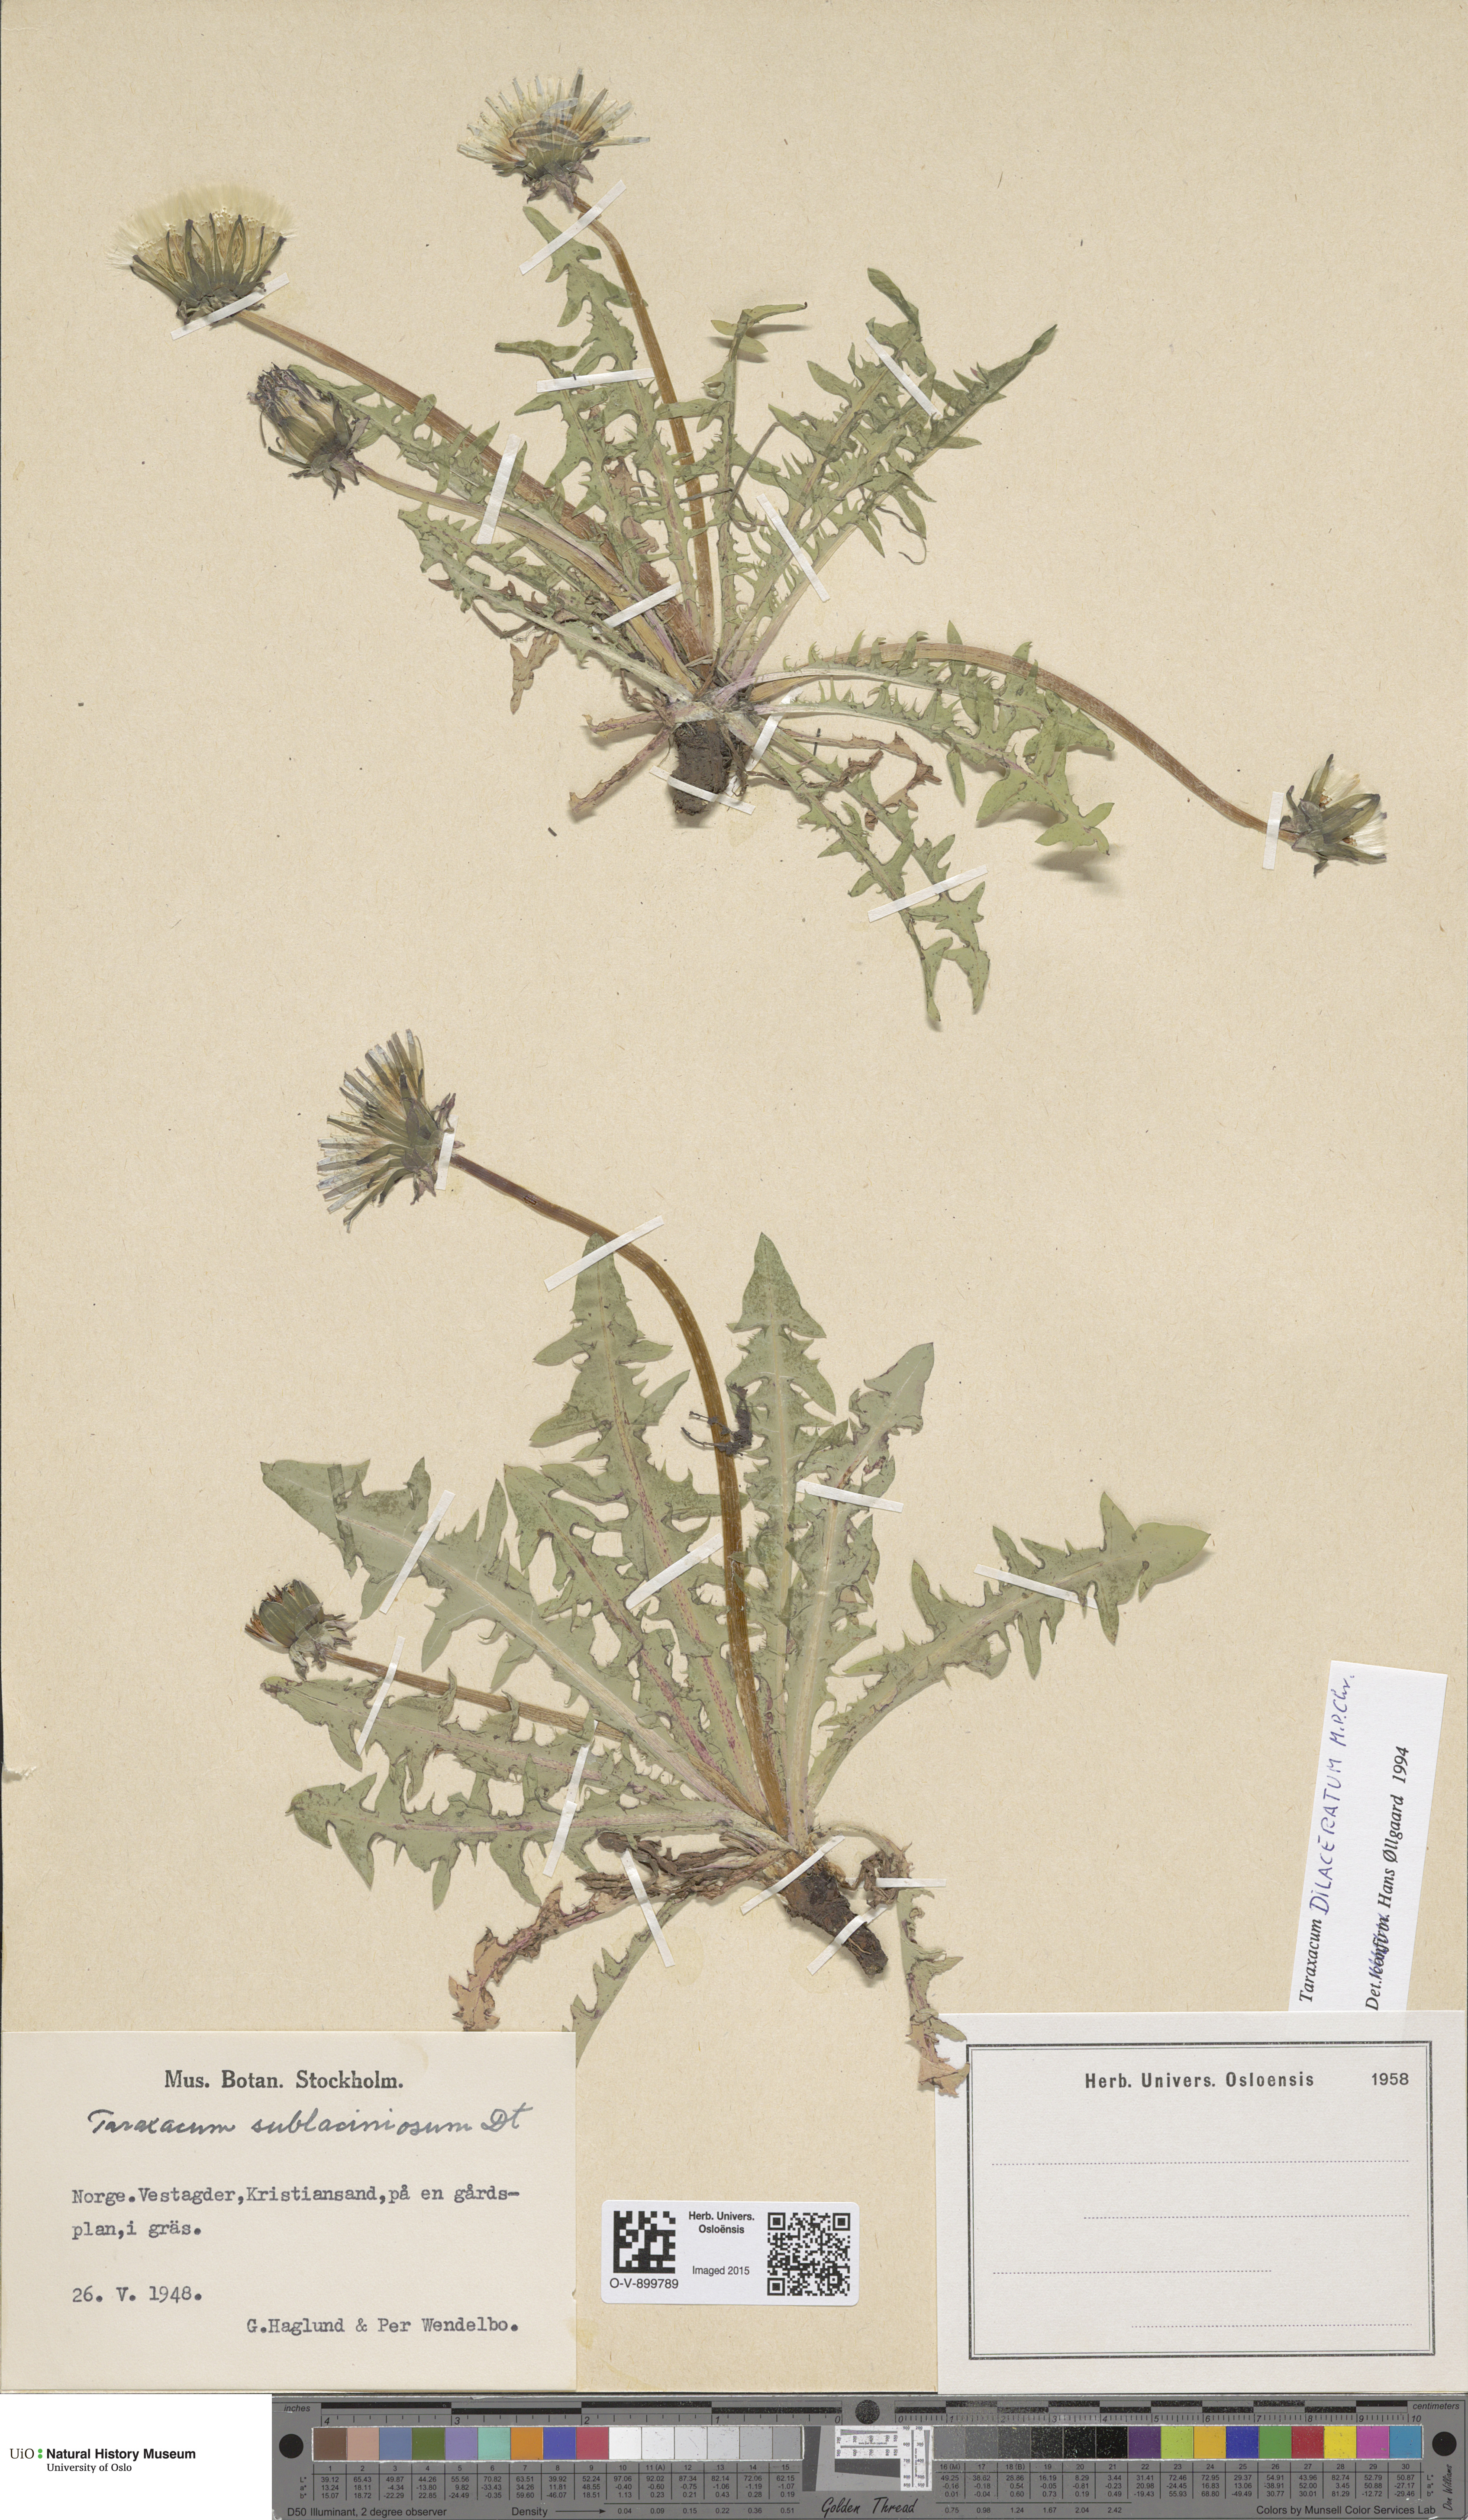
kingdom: Plantae
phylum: Tracheophyta
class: Magnoliopsida
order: Asterales
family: Asteraceae
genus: Taraxacum
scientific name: Taraxacum dilaceratum
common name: Lacerate-leaved dandelion
